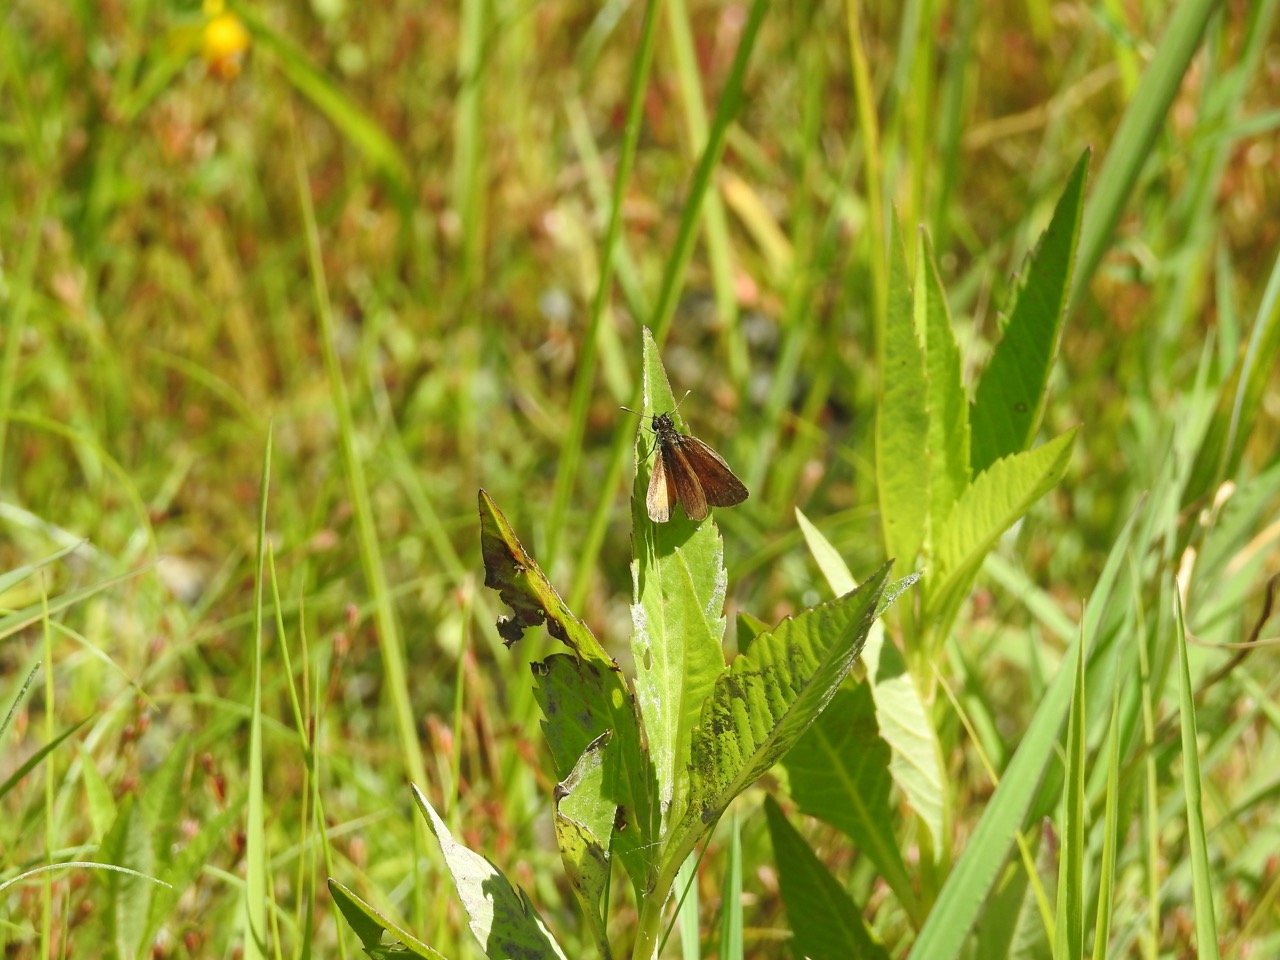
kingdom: Animalia
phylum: Arthropoda
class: Insecta
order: Lepidoptera
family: Hesperiidae
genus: Ancyloxypha
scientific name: Ancyloxypha numitor
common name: Least Skipper
